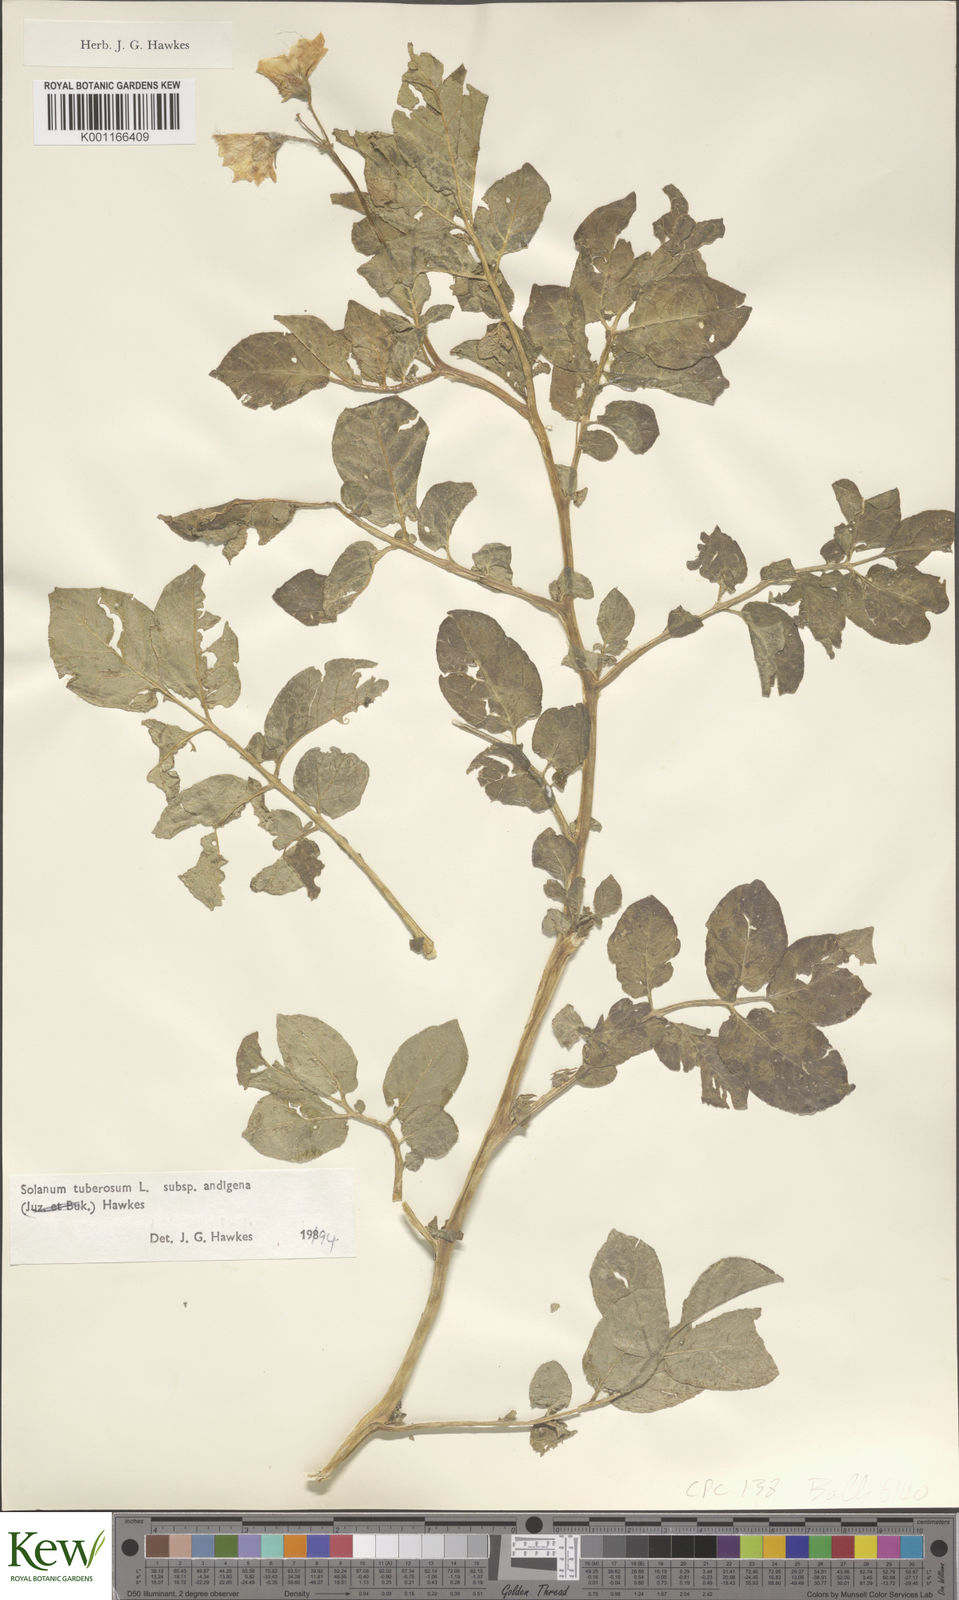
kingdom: Plantae
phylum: Tracheophyta
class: Magnoliopsida
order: Solanales
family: Solanaceae
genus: Solanum
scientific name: Solanum tuberosum
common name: Potato
